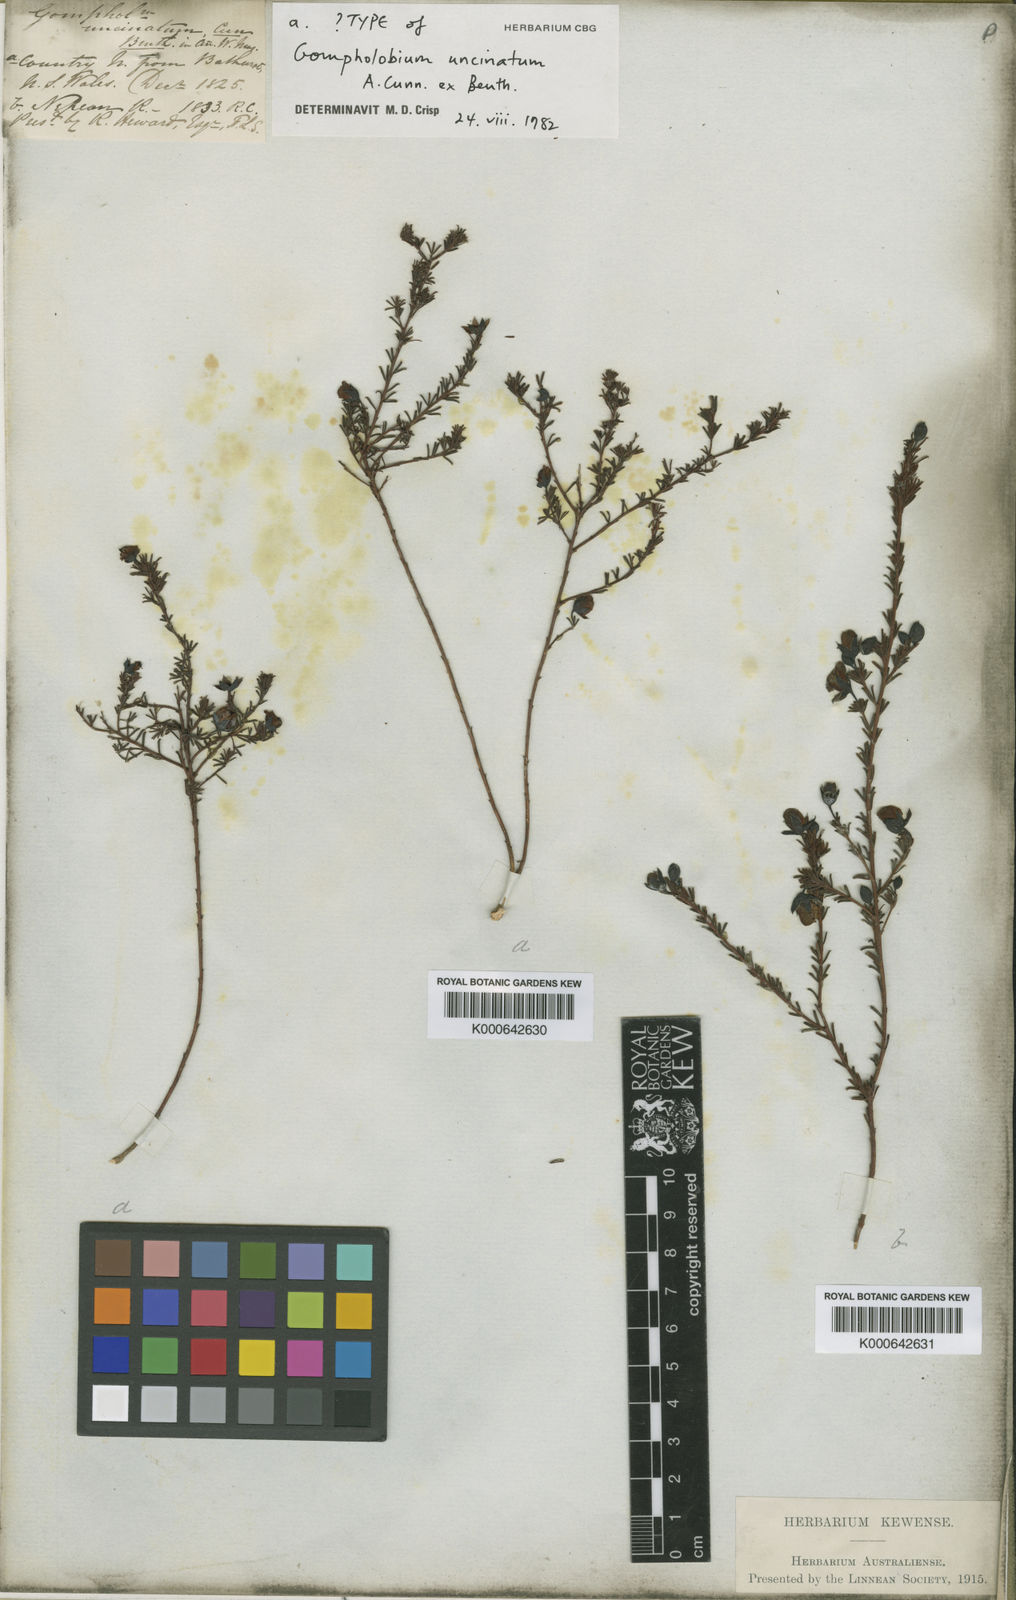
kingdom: Plantae
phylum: Tracheophyta
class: Magnoliopsida
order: Fabales
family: Fabaceae
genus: Gompholobium
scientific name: Gompholobium uncinatum
